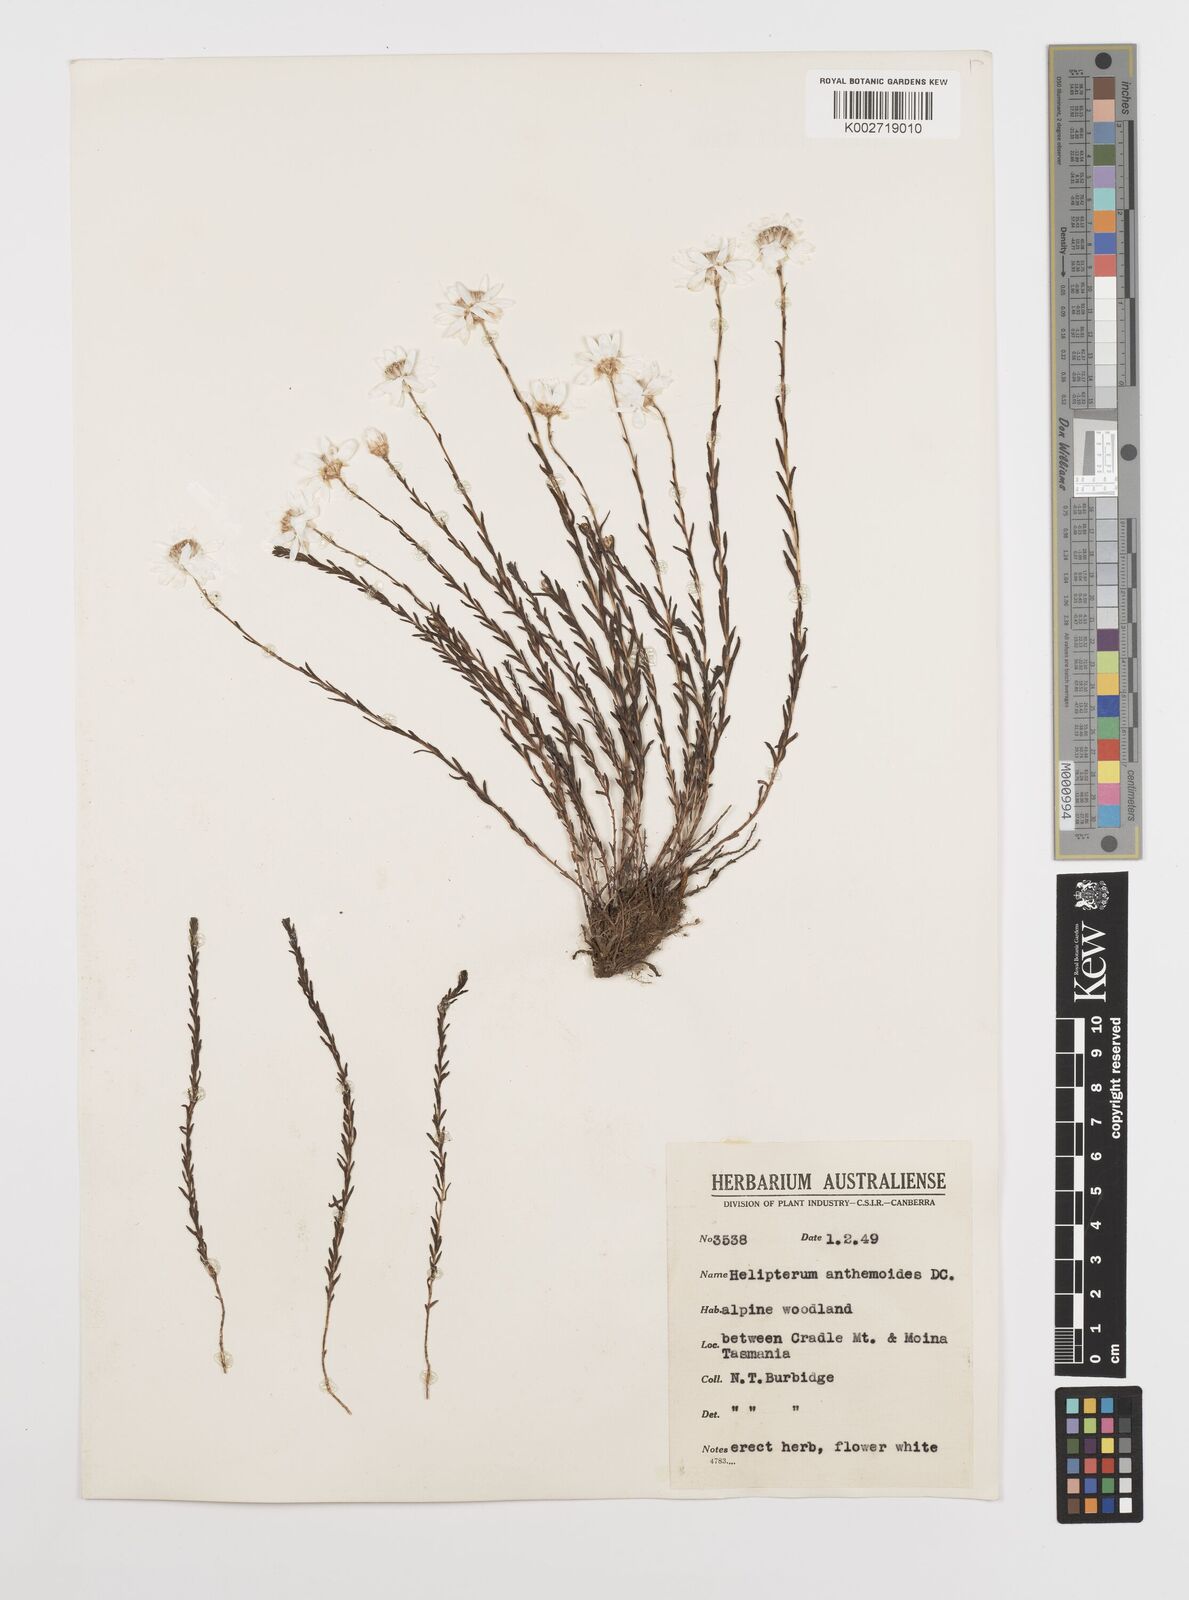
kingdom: Plantae
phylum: Tracheophyta
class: Magnoliopsida
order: Asterales
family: Asteraceae
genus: Rhodanthe
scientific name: Rhodanthe anthemoides
